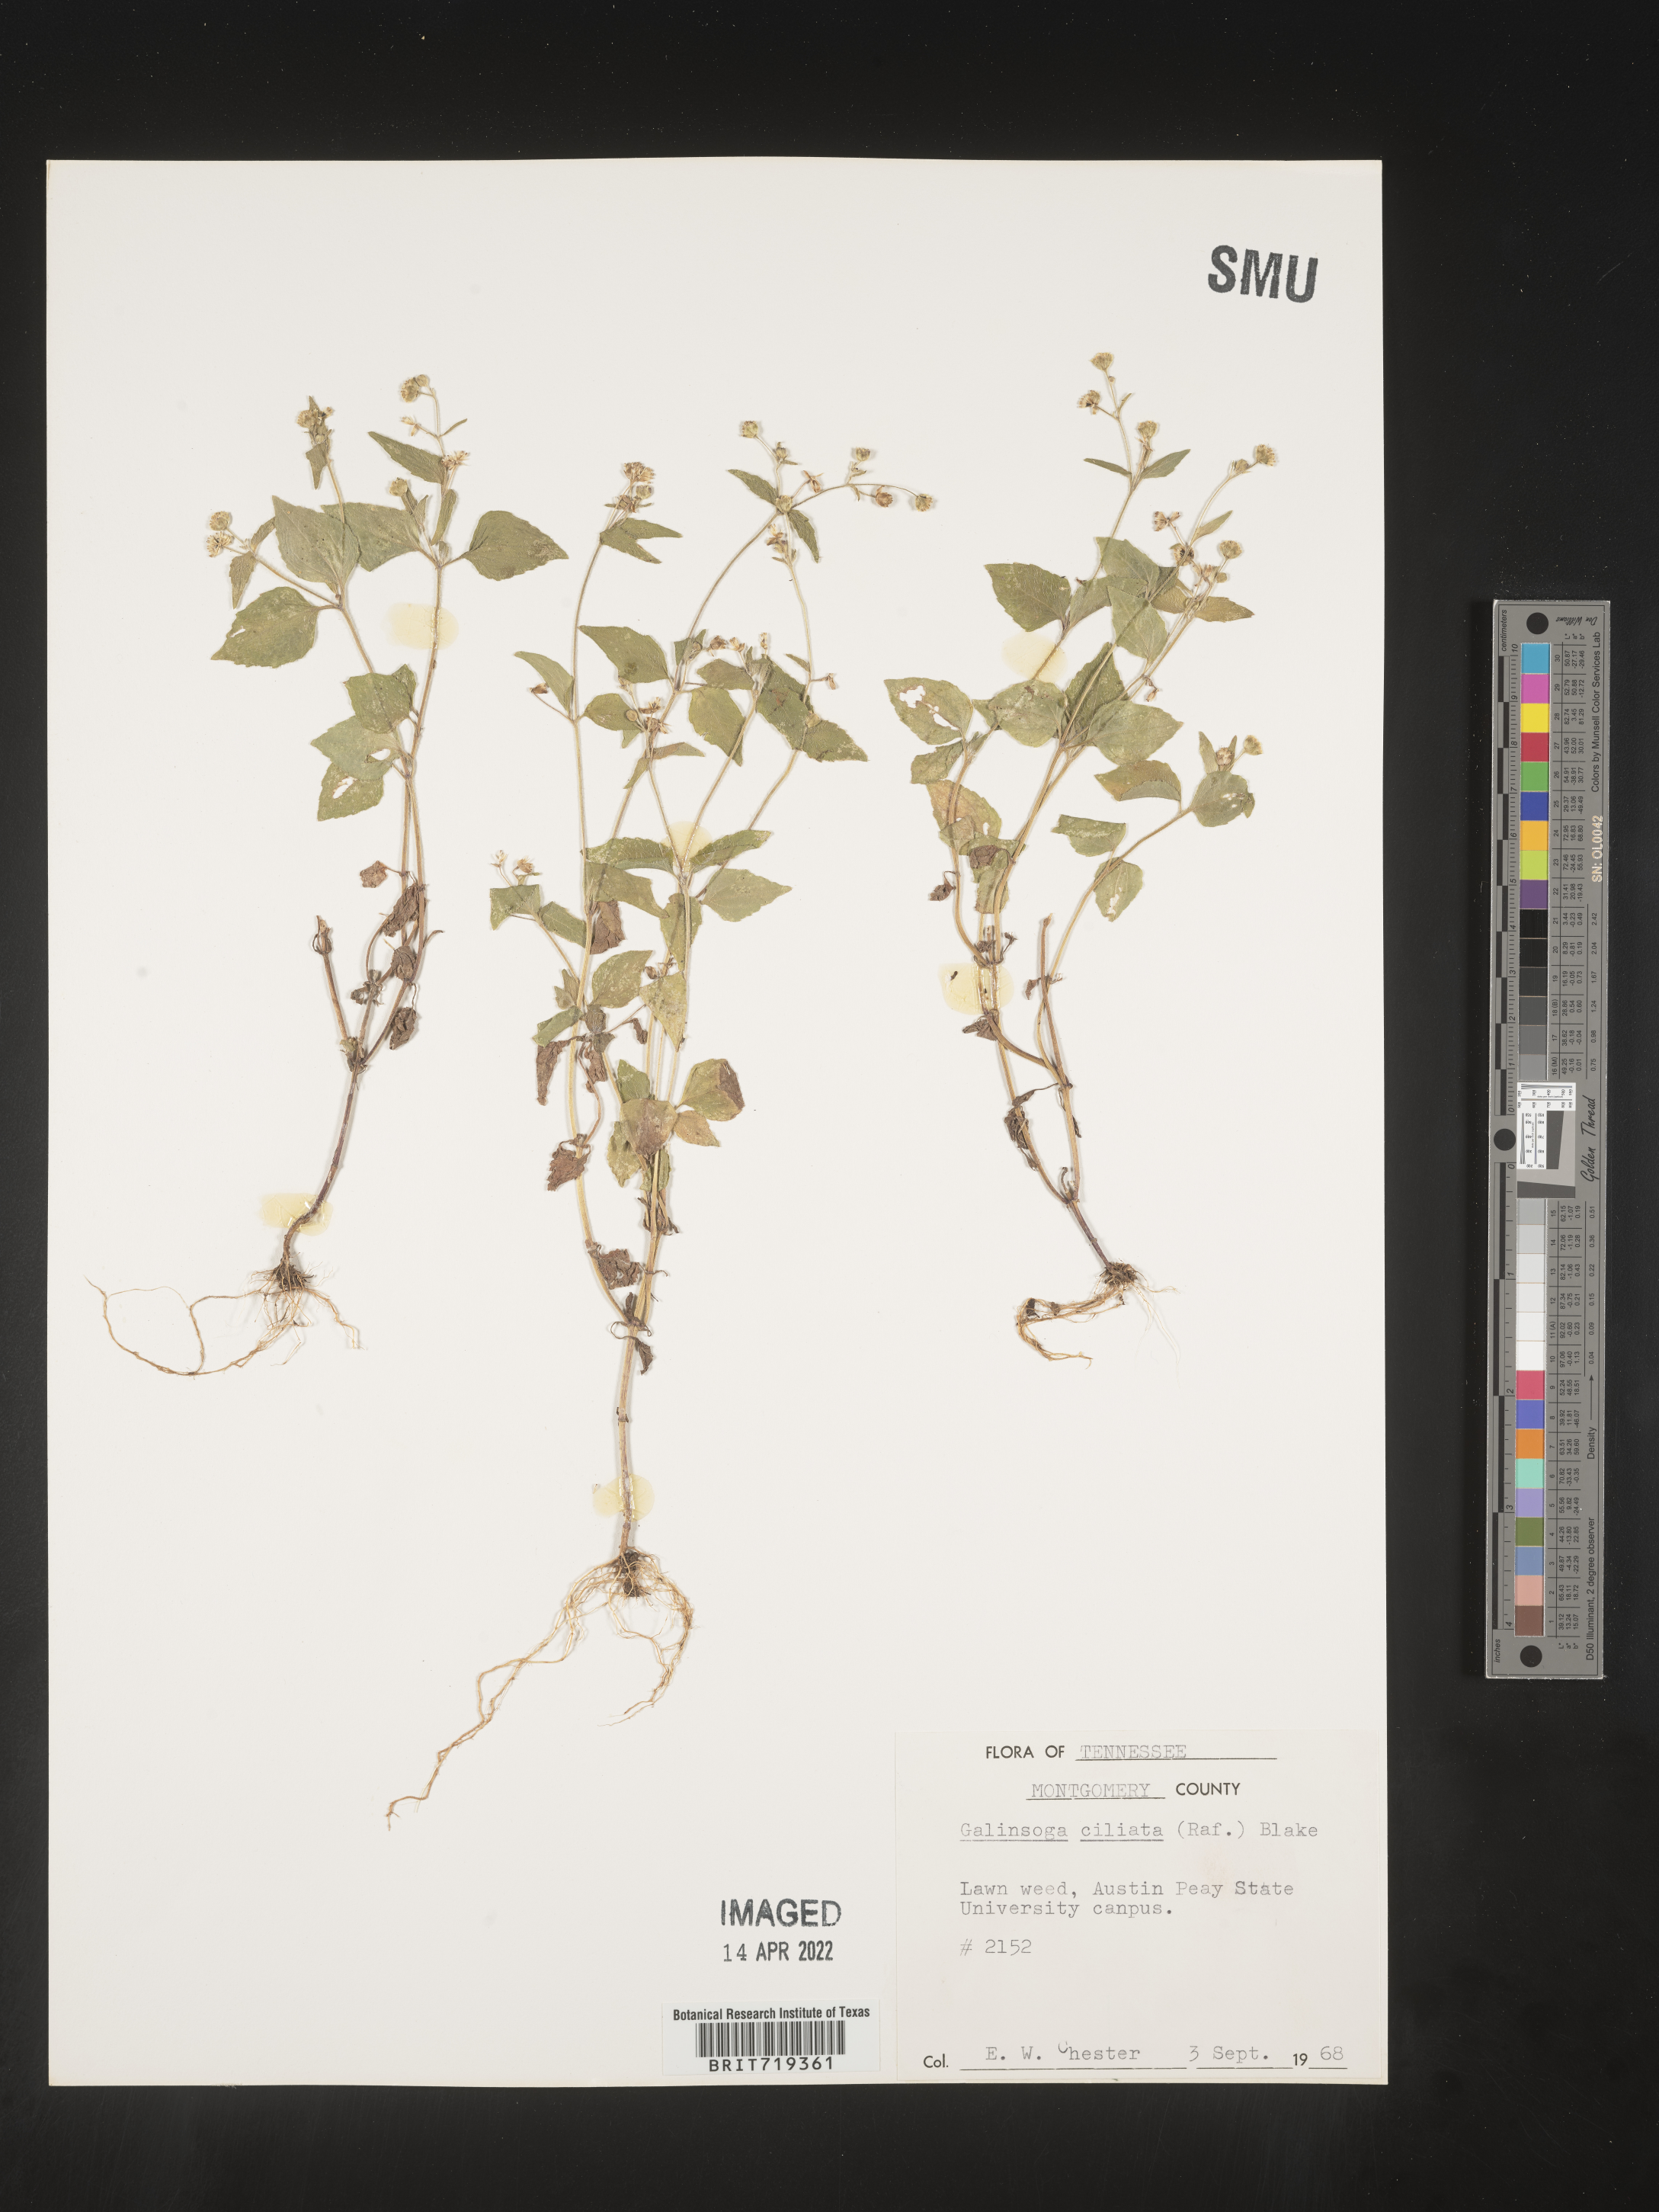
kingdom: Plantae
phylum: Tracheophyta
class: Magnoliopsida
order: Asterales
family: Asteraceae
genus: Galinsoga
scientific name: Galinsoga quadriradiata
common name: Shaggy soldier
